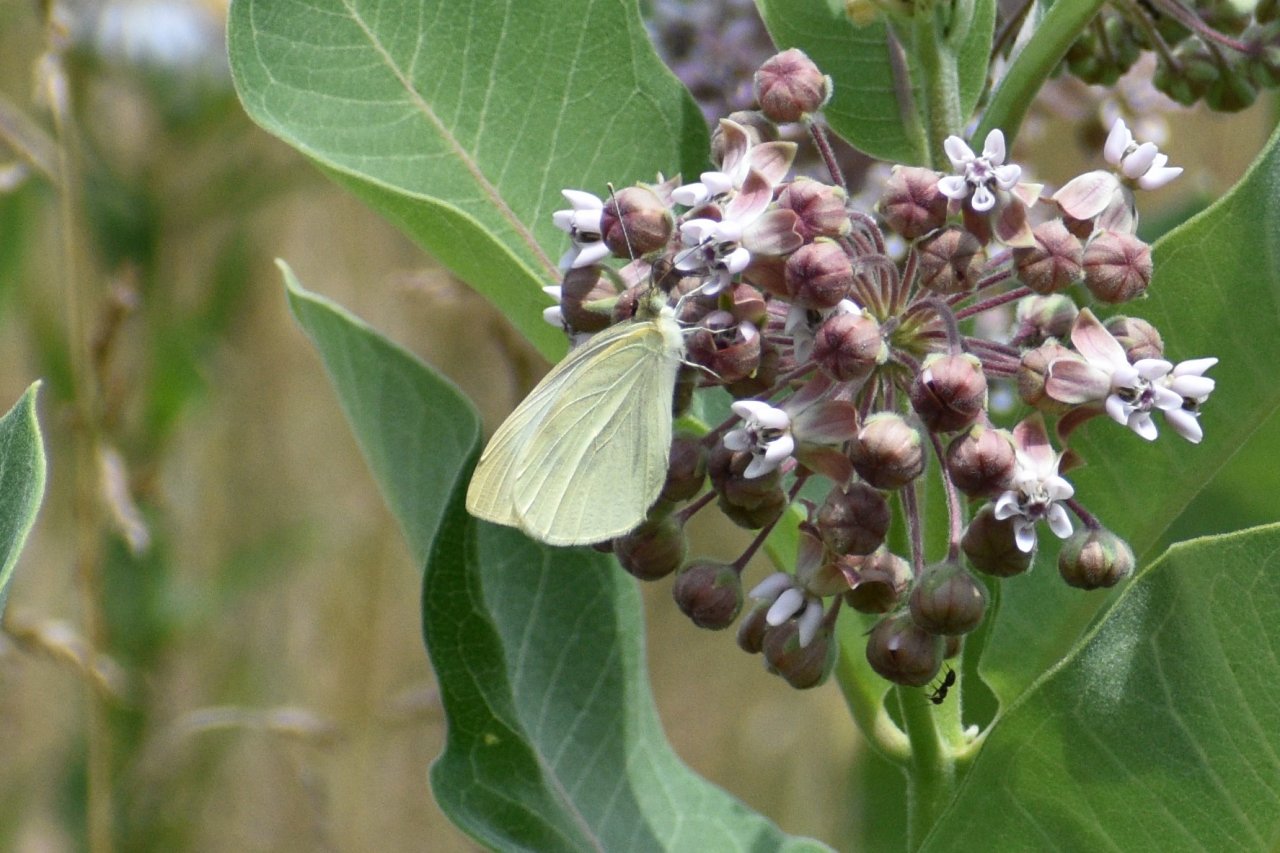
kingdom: Animalia
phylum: Arthropoda
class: Insecta
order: Lepidoptera
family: Pieridae
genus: Pieris
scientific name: Pieris rapae
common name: Cabbage White
